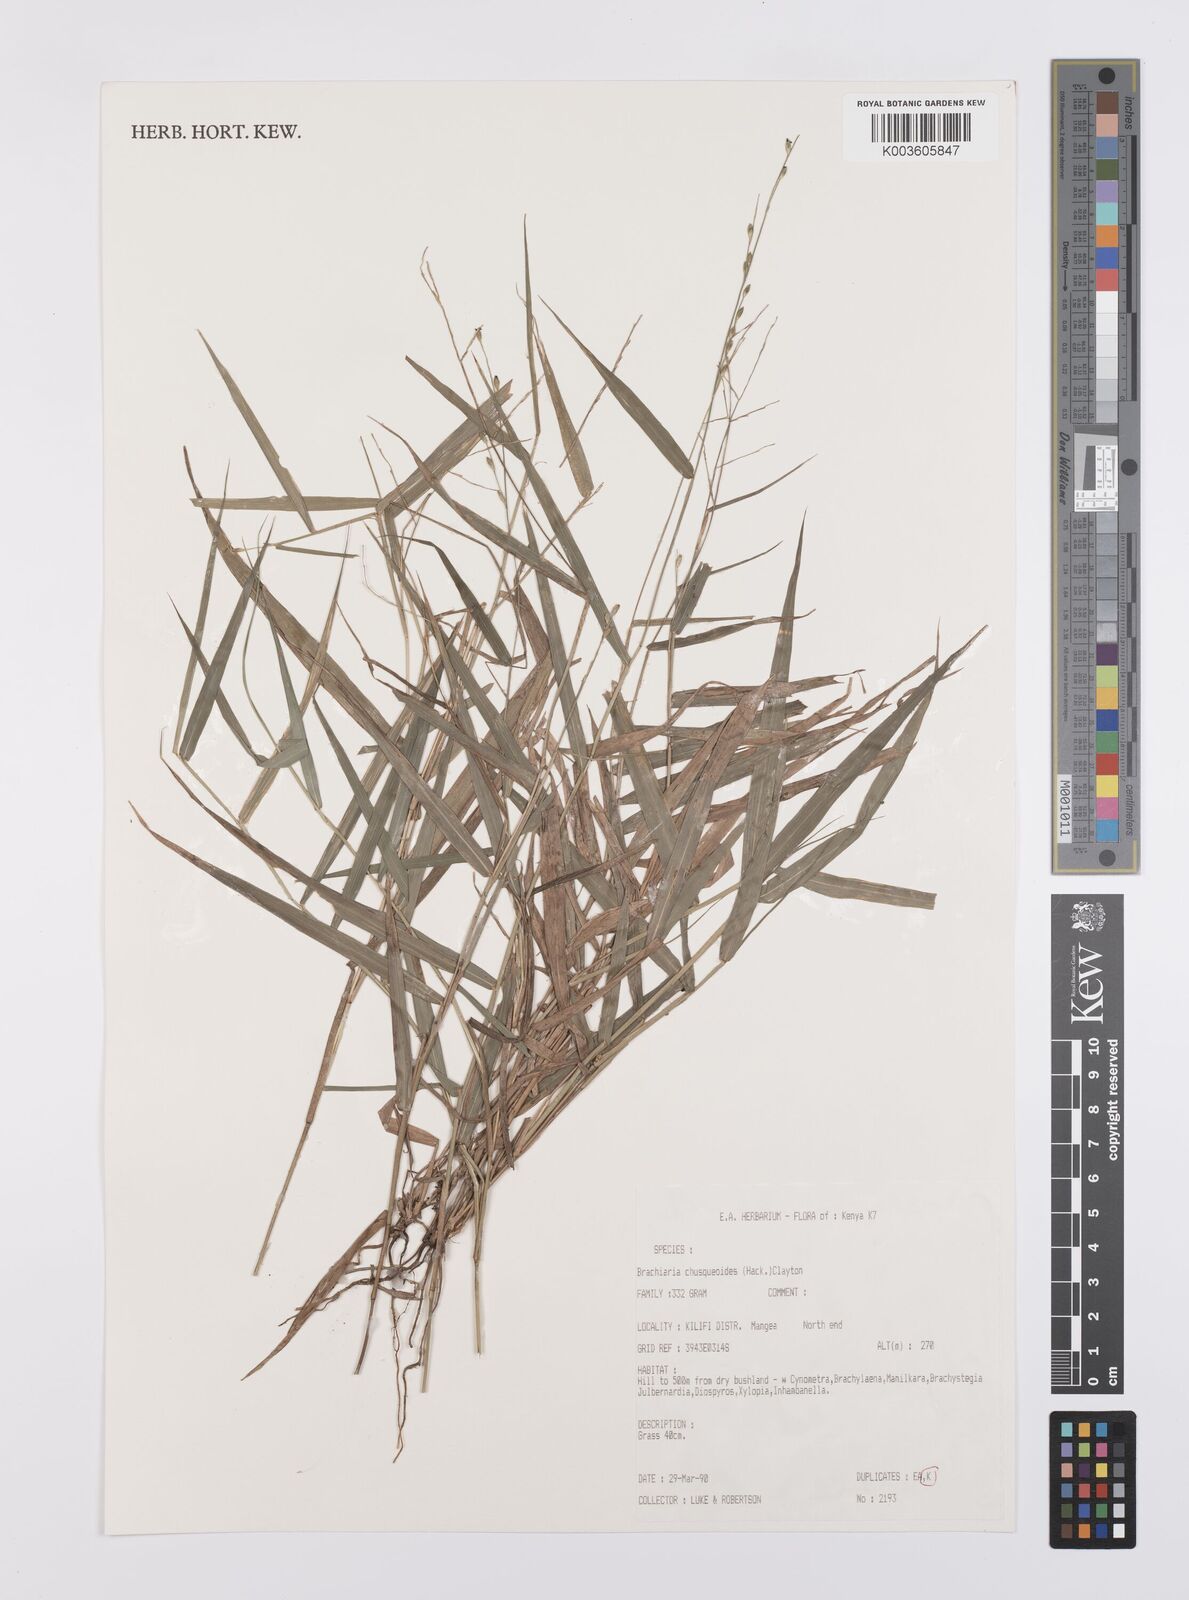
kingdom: Plantae
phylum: Tracheophyta
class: Liliopsida
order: Poales
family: Poaceae
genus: Urochloa
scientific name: Urochloa chusqueoides
